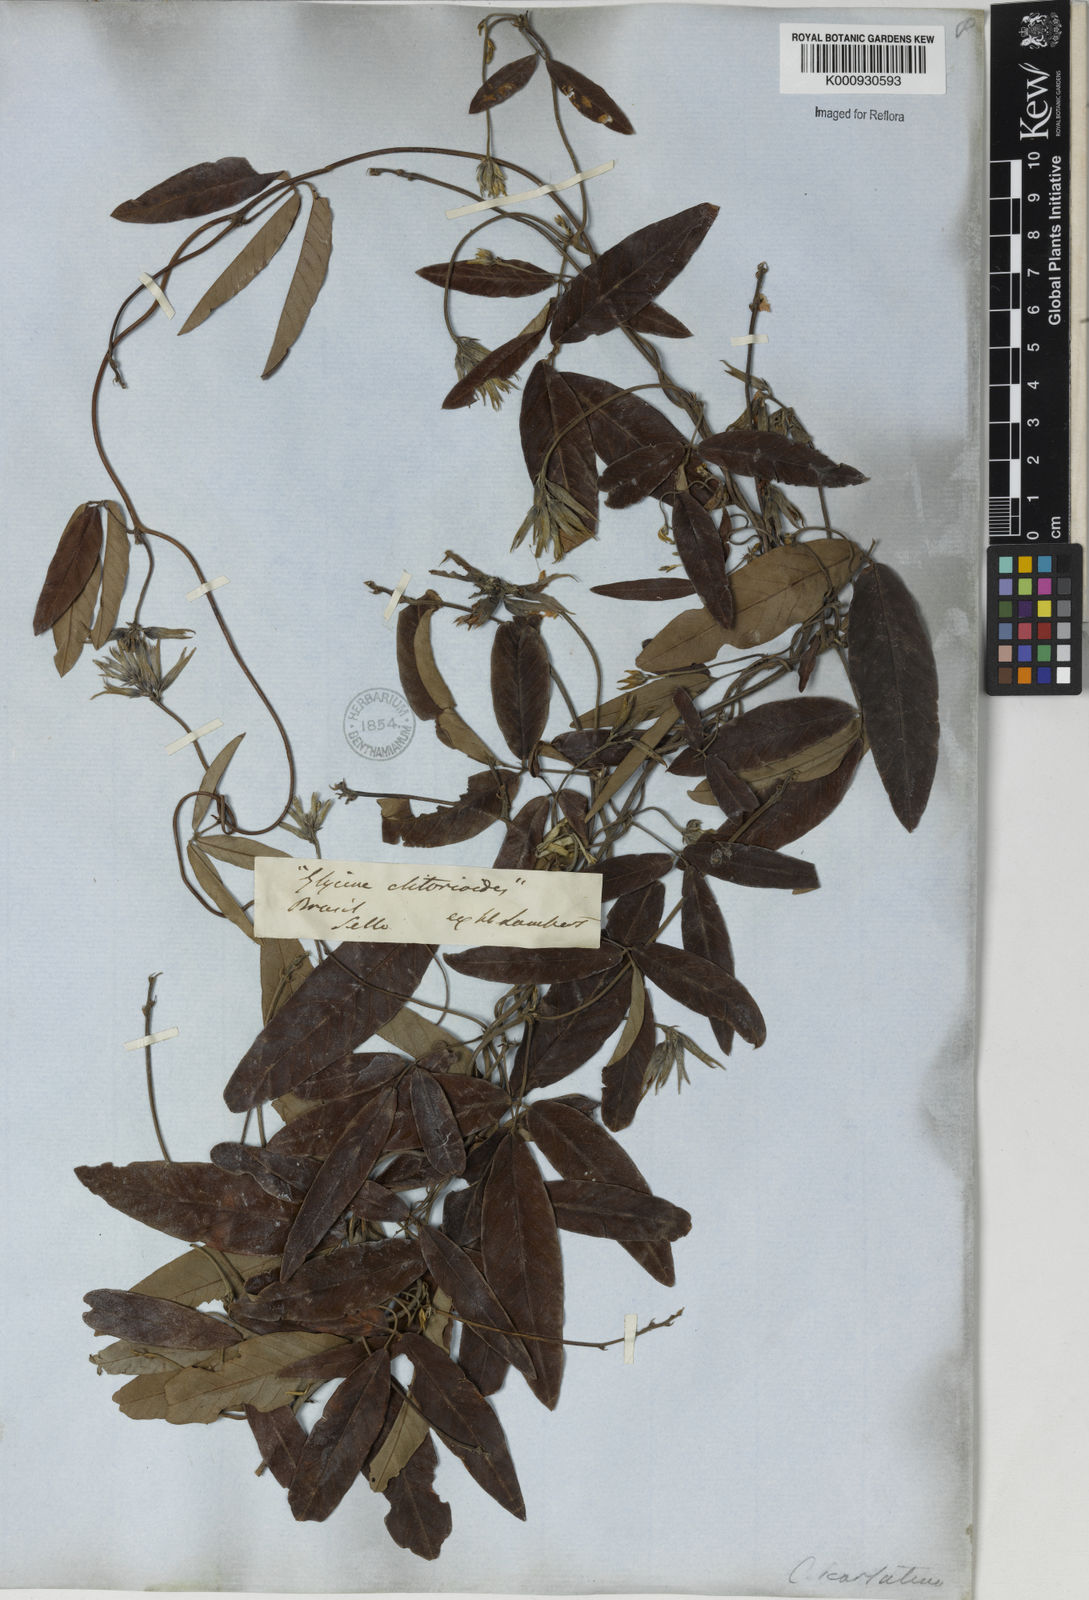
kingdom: Plantae
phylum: Tracheophyta
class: Magnoliopsida
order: Fabales
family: Fabaceae
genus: Betencourtia
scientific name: Betencourtia scarlatina
